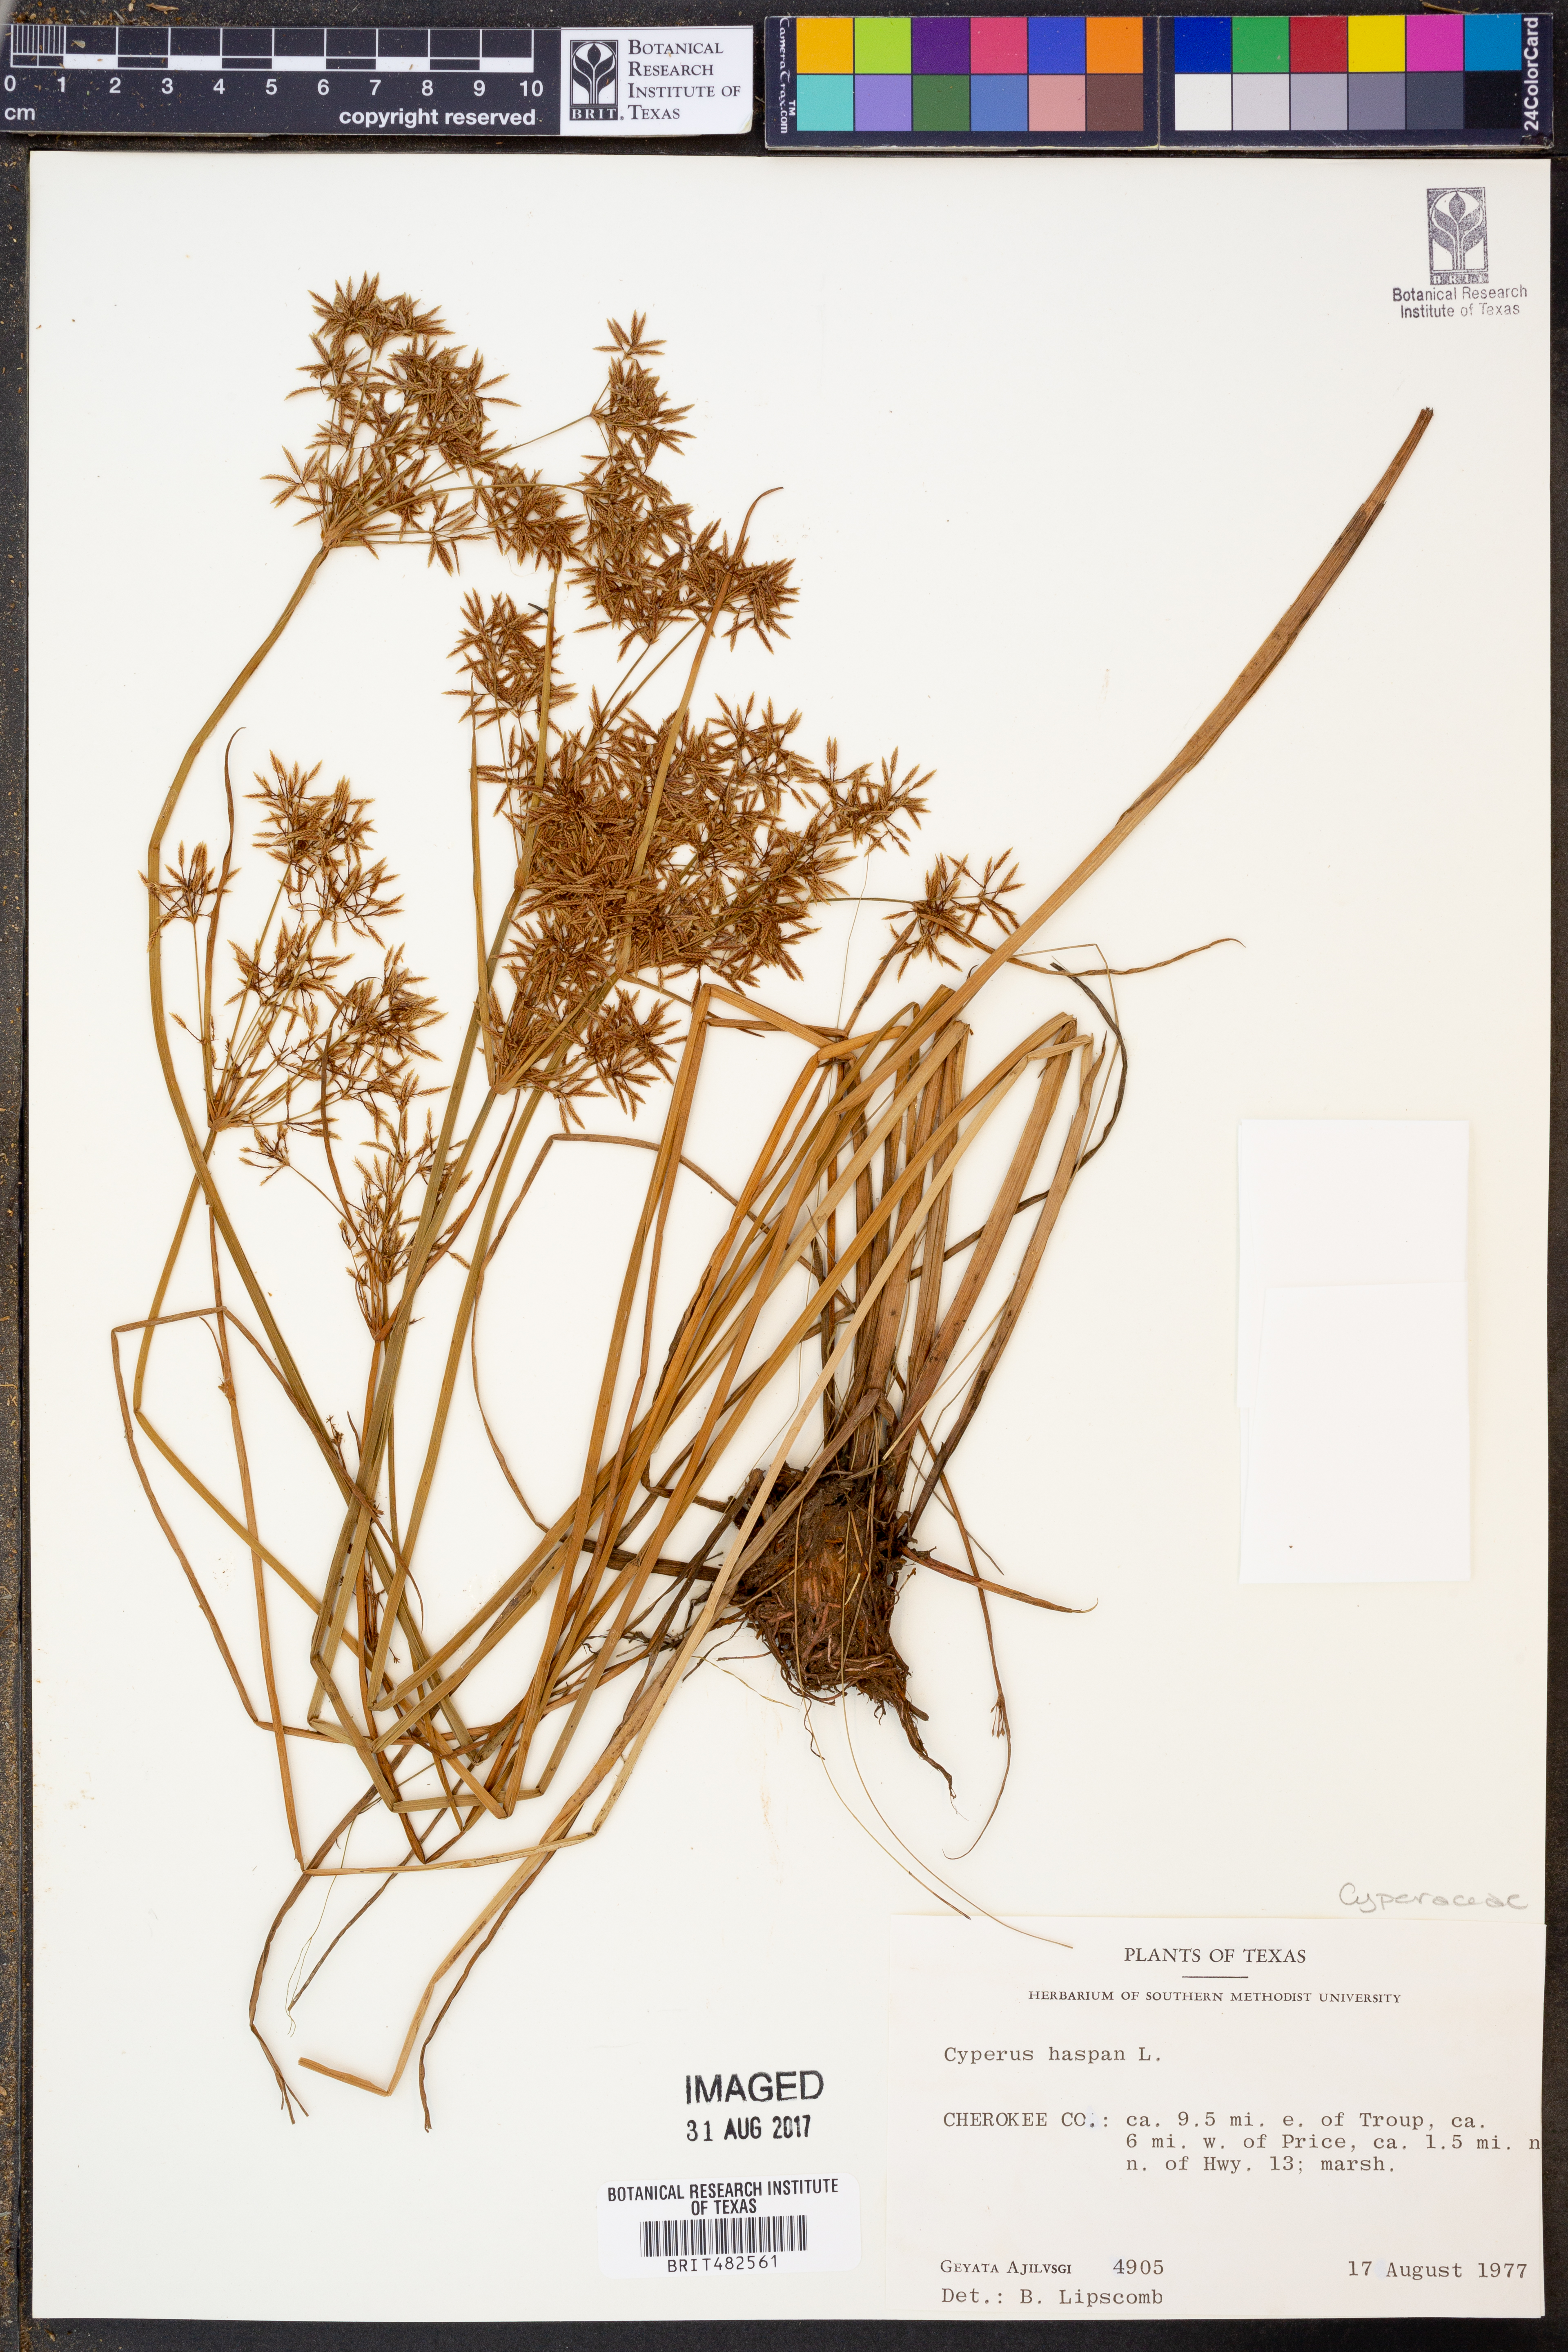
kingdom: Plantae
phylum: Tracheophyta
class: Liliopsida
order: Poales
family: Cyperaceae
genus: Cyperus
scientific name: Cyperus haspan
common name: Haspan flatsedge
